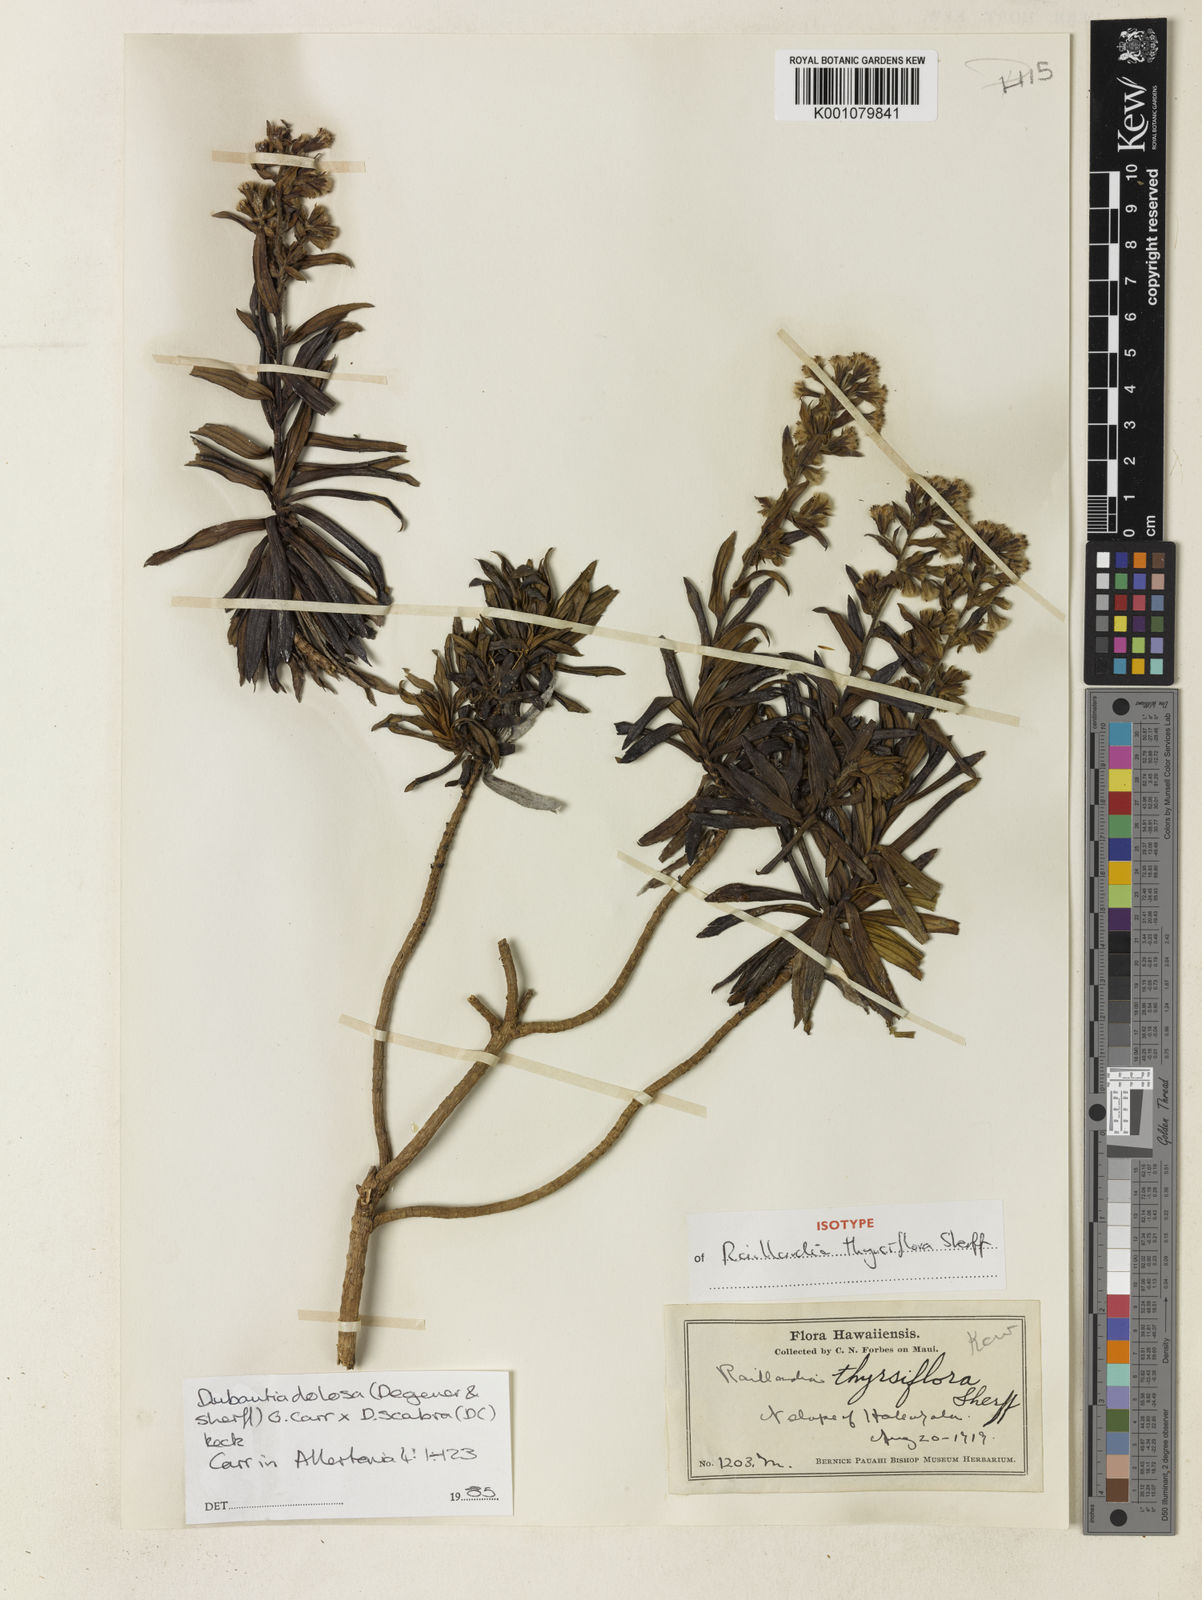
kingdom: Plantae
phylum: Tracheophyta
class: Magnoliopsida
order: Asterales
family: Asteraceae
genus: Dubautia
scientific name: Dubautia waianapanapaensis
